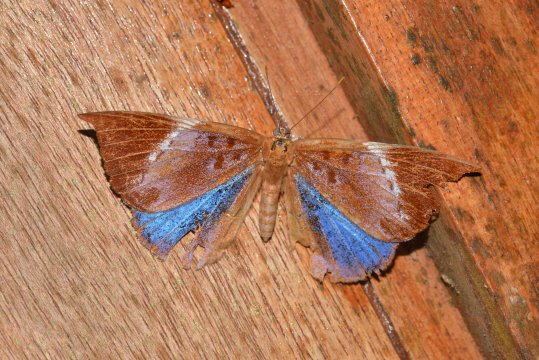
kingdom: Animalia
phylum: Arthropoda
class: Insecta
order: Lepidoptera
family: Riodinidae
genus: Behemothia
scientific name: Behemothia godmanii
